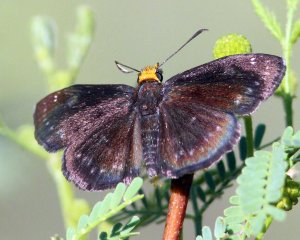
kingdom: Animalia
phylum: Arthropoda
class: Insecta
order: Lepidoptera
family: Hesperiidae
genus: Staphylus
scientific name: Staphylus ceos
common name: Golden-headed Scallopwing
